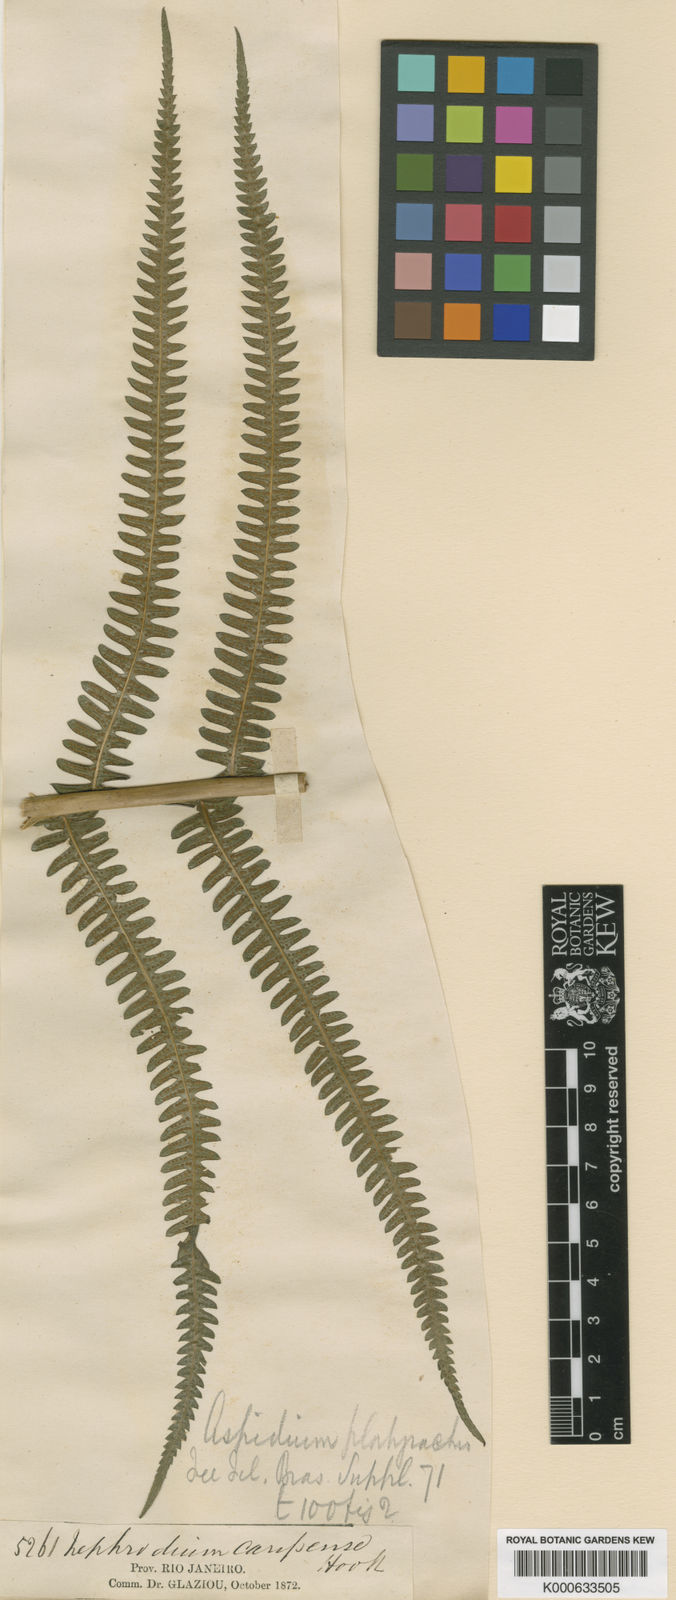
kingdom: Plantae
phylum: Tracheophyta
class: Polypodiopsida
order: Polypodiales
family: Thelypteridaceae
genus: Amauropelta
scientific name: Amauropelta pachyrhachis
